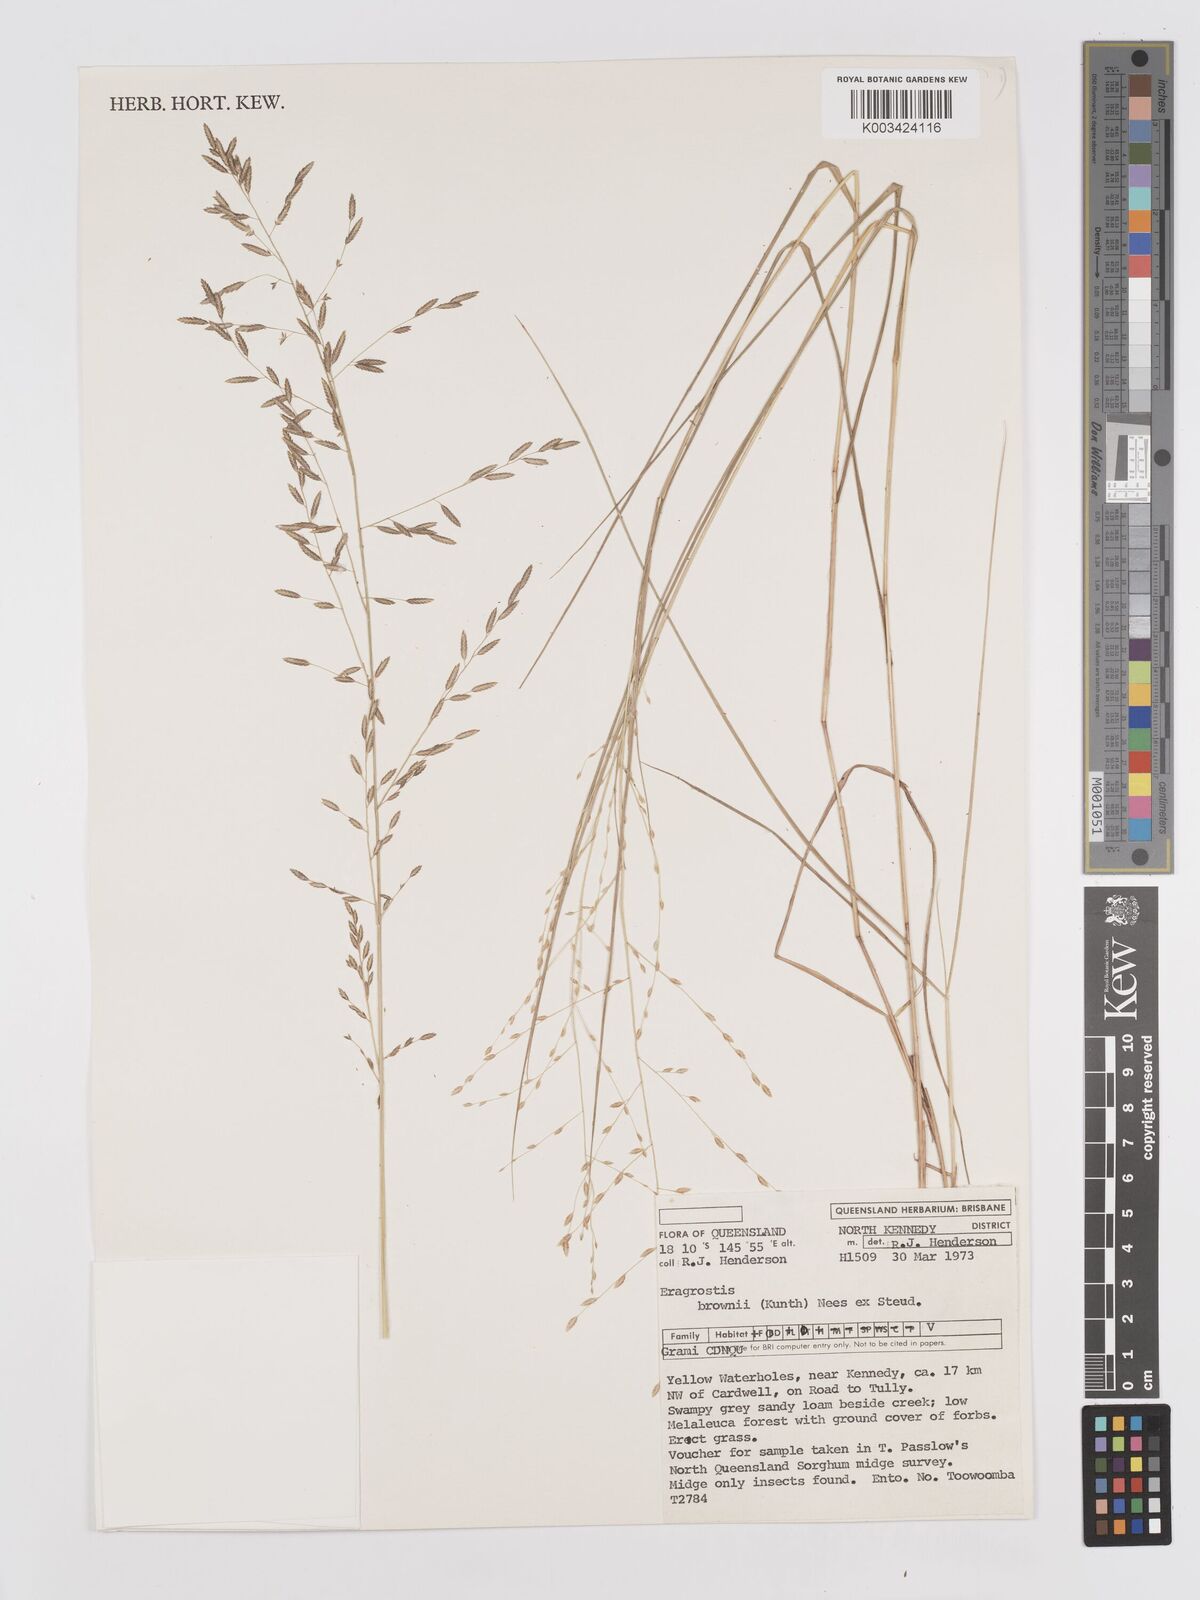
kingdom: Plantae
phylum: Tracheophyta
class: Liliopsida
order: Poales
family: Poaceae
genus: Eragrostis
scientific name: Eragrostis brownii
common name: Lovegrass
